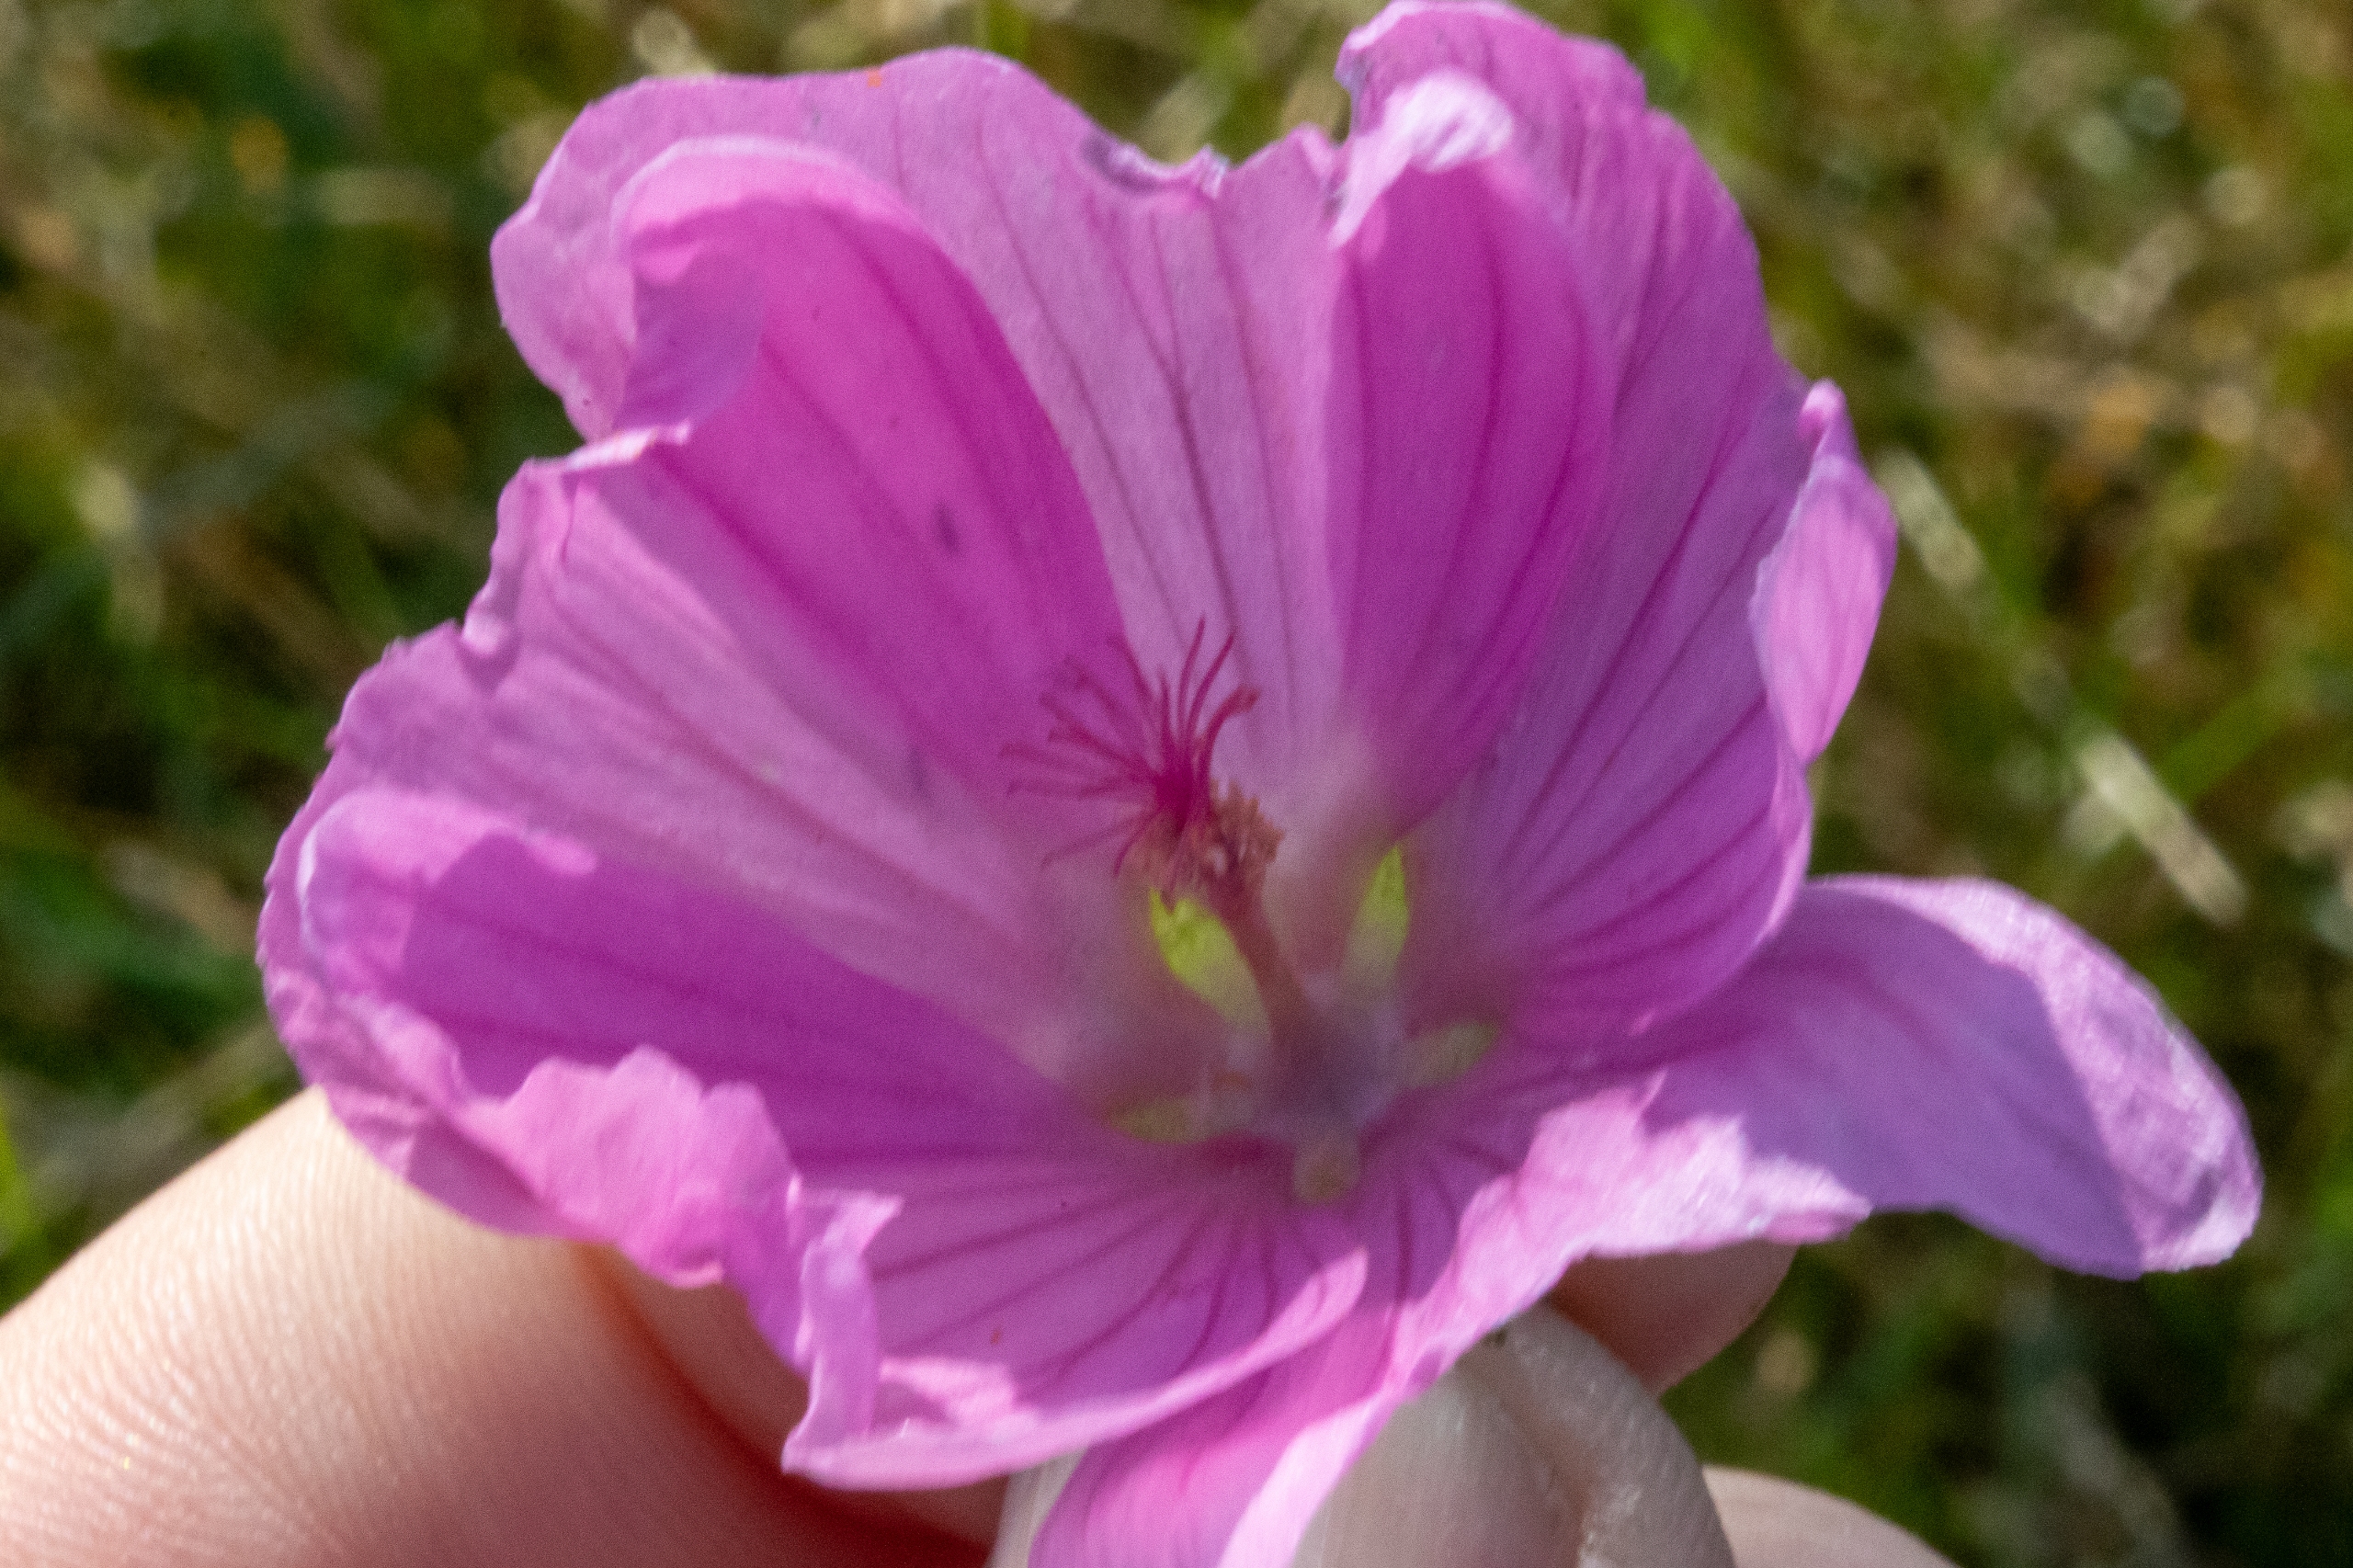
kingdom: Plantae
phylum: Tracheophyta
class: Magnoliopsida
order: Malvales
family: Malvaceae
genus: Malva
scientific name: Malva alcea
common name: Rosen-katost
